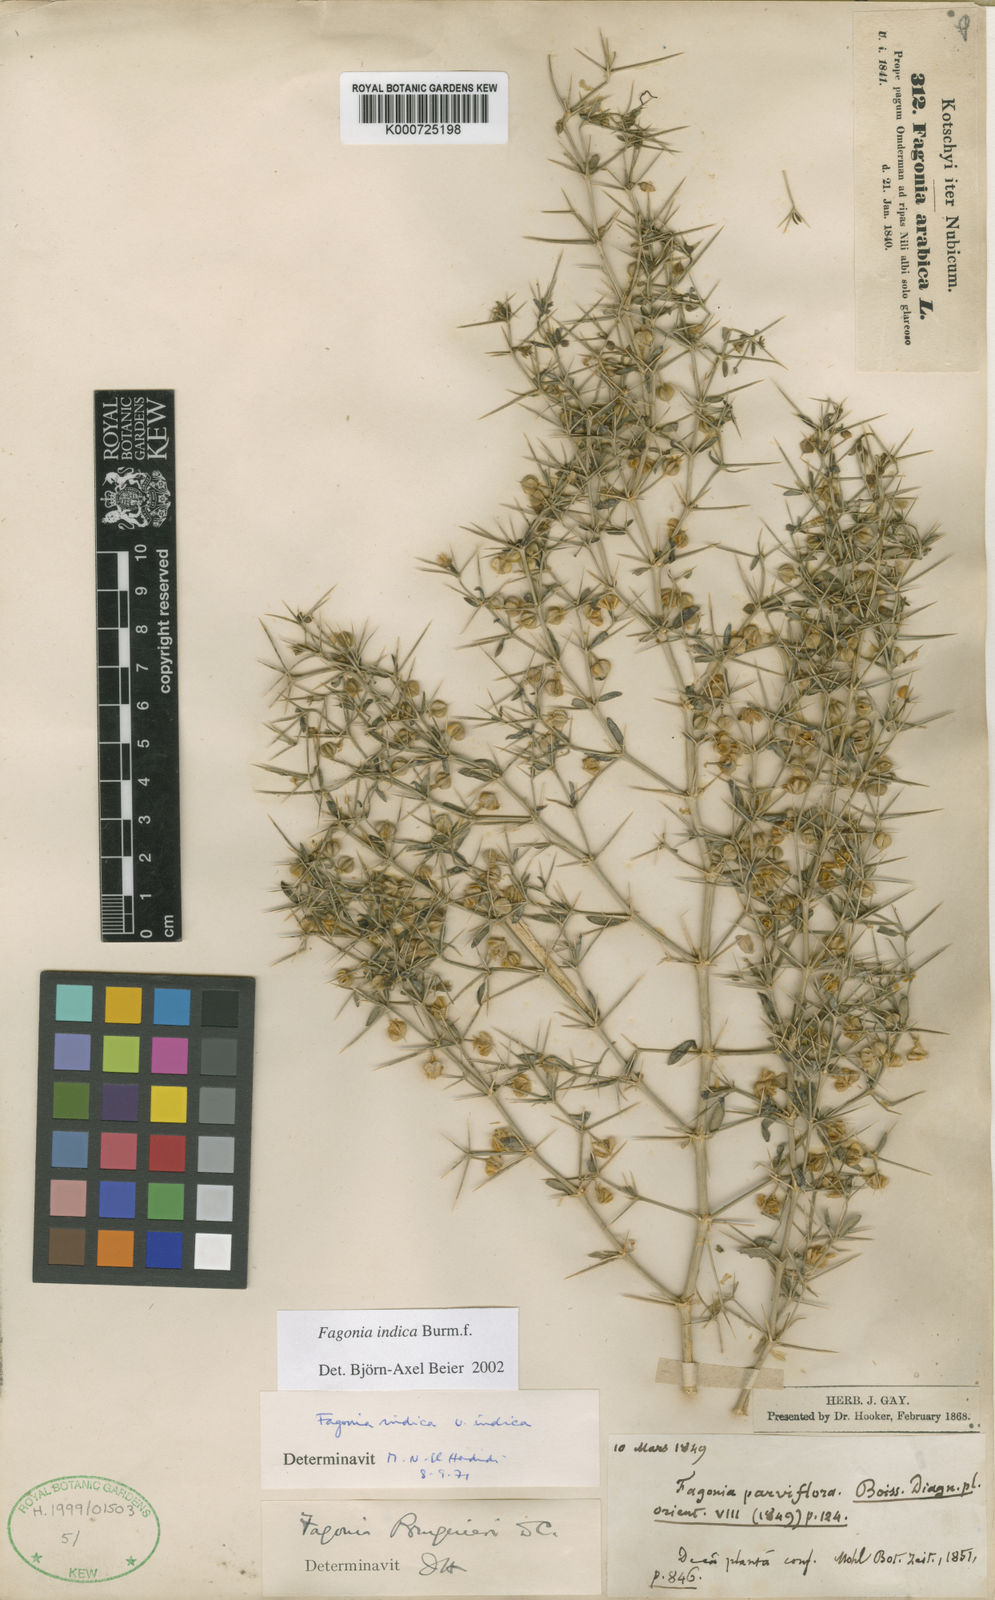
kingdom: Plantae
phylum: Tracheophyta
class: Magnoliopsida
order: Zygophyllales
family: Zygophyllaceae
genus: Fagonia
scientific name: Fagonia indica
